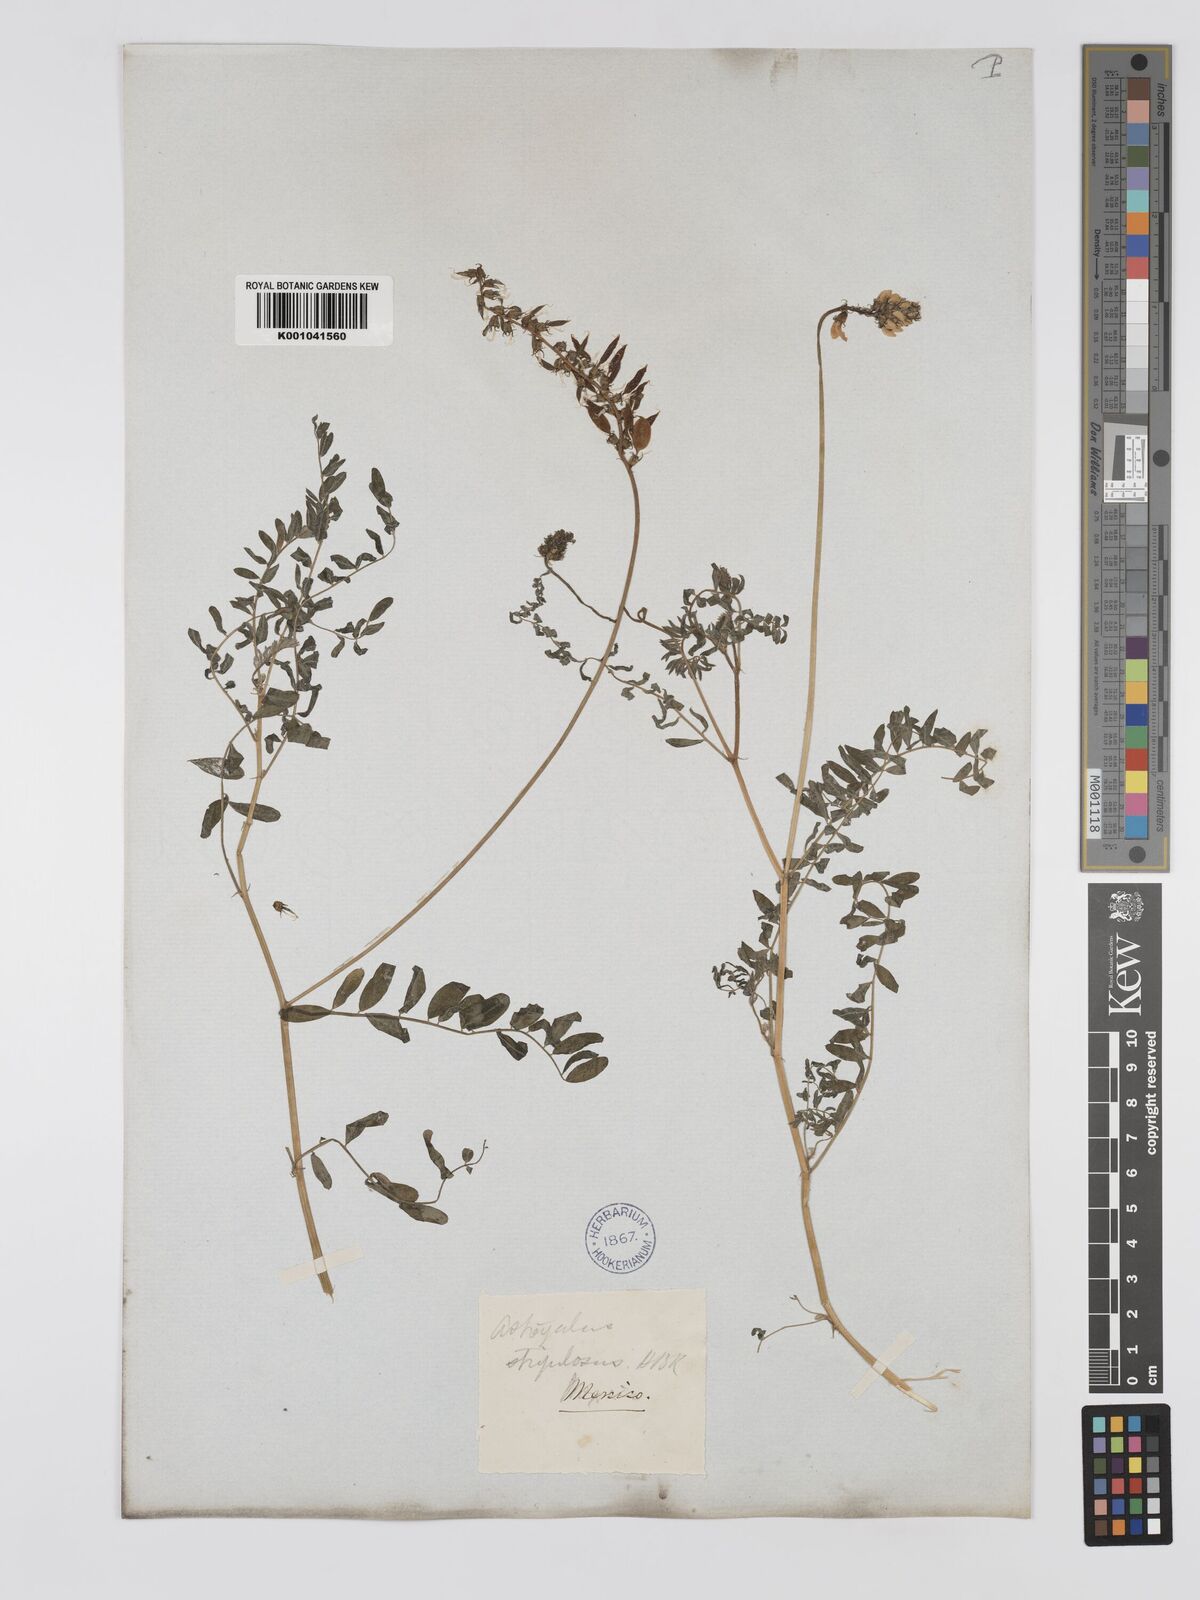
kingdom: Plantae
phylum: Tracheophyta
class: Magnoliopsida
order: Fabales
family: Fabaceae
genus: Astragalus
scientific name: Astragalus strigulosus
